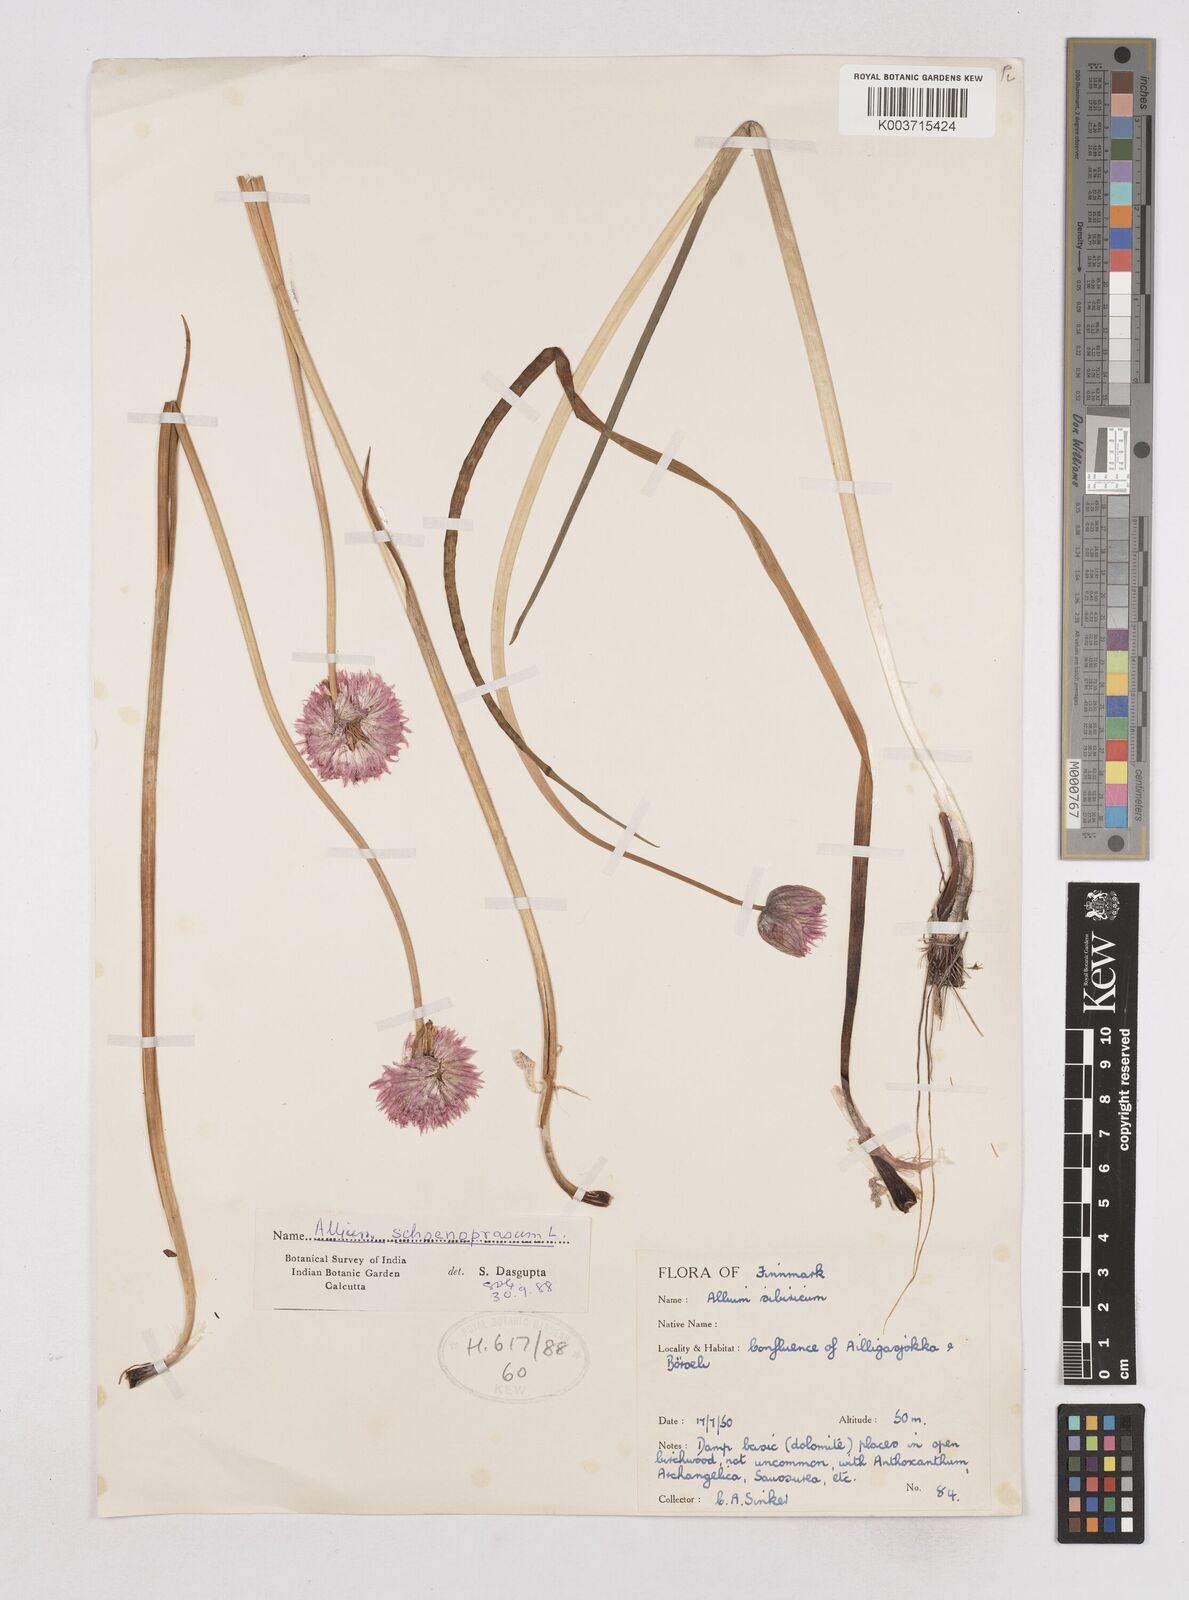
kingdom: Plantae
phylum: Tracheophyta
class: Liliopsida
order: Asparagales
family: Amaryllidaceae
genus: Allium
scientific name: Allium schoenoprasum
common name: Chives
